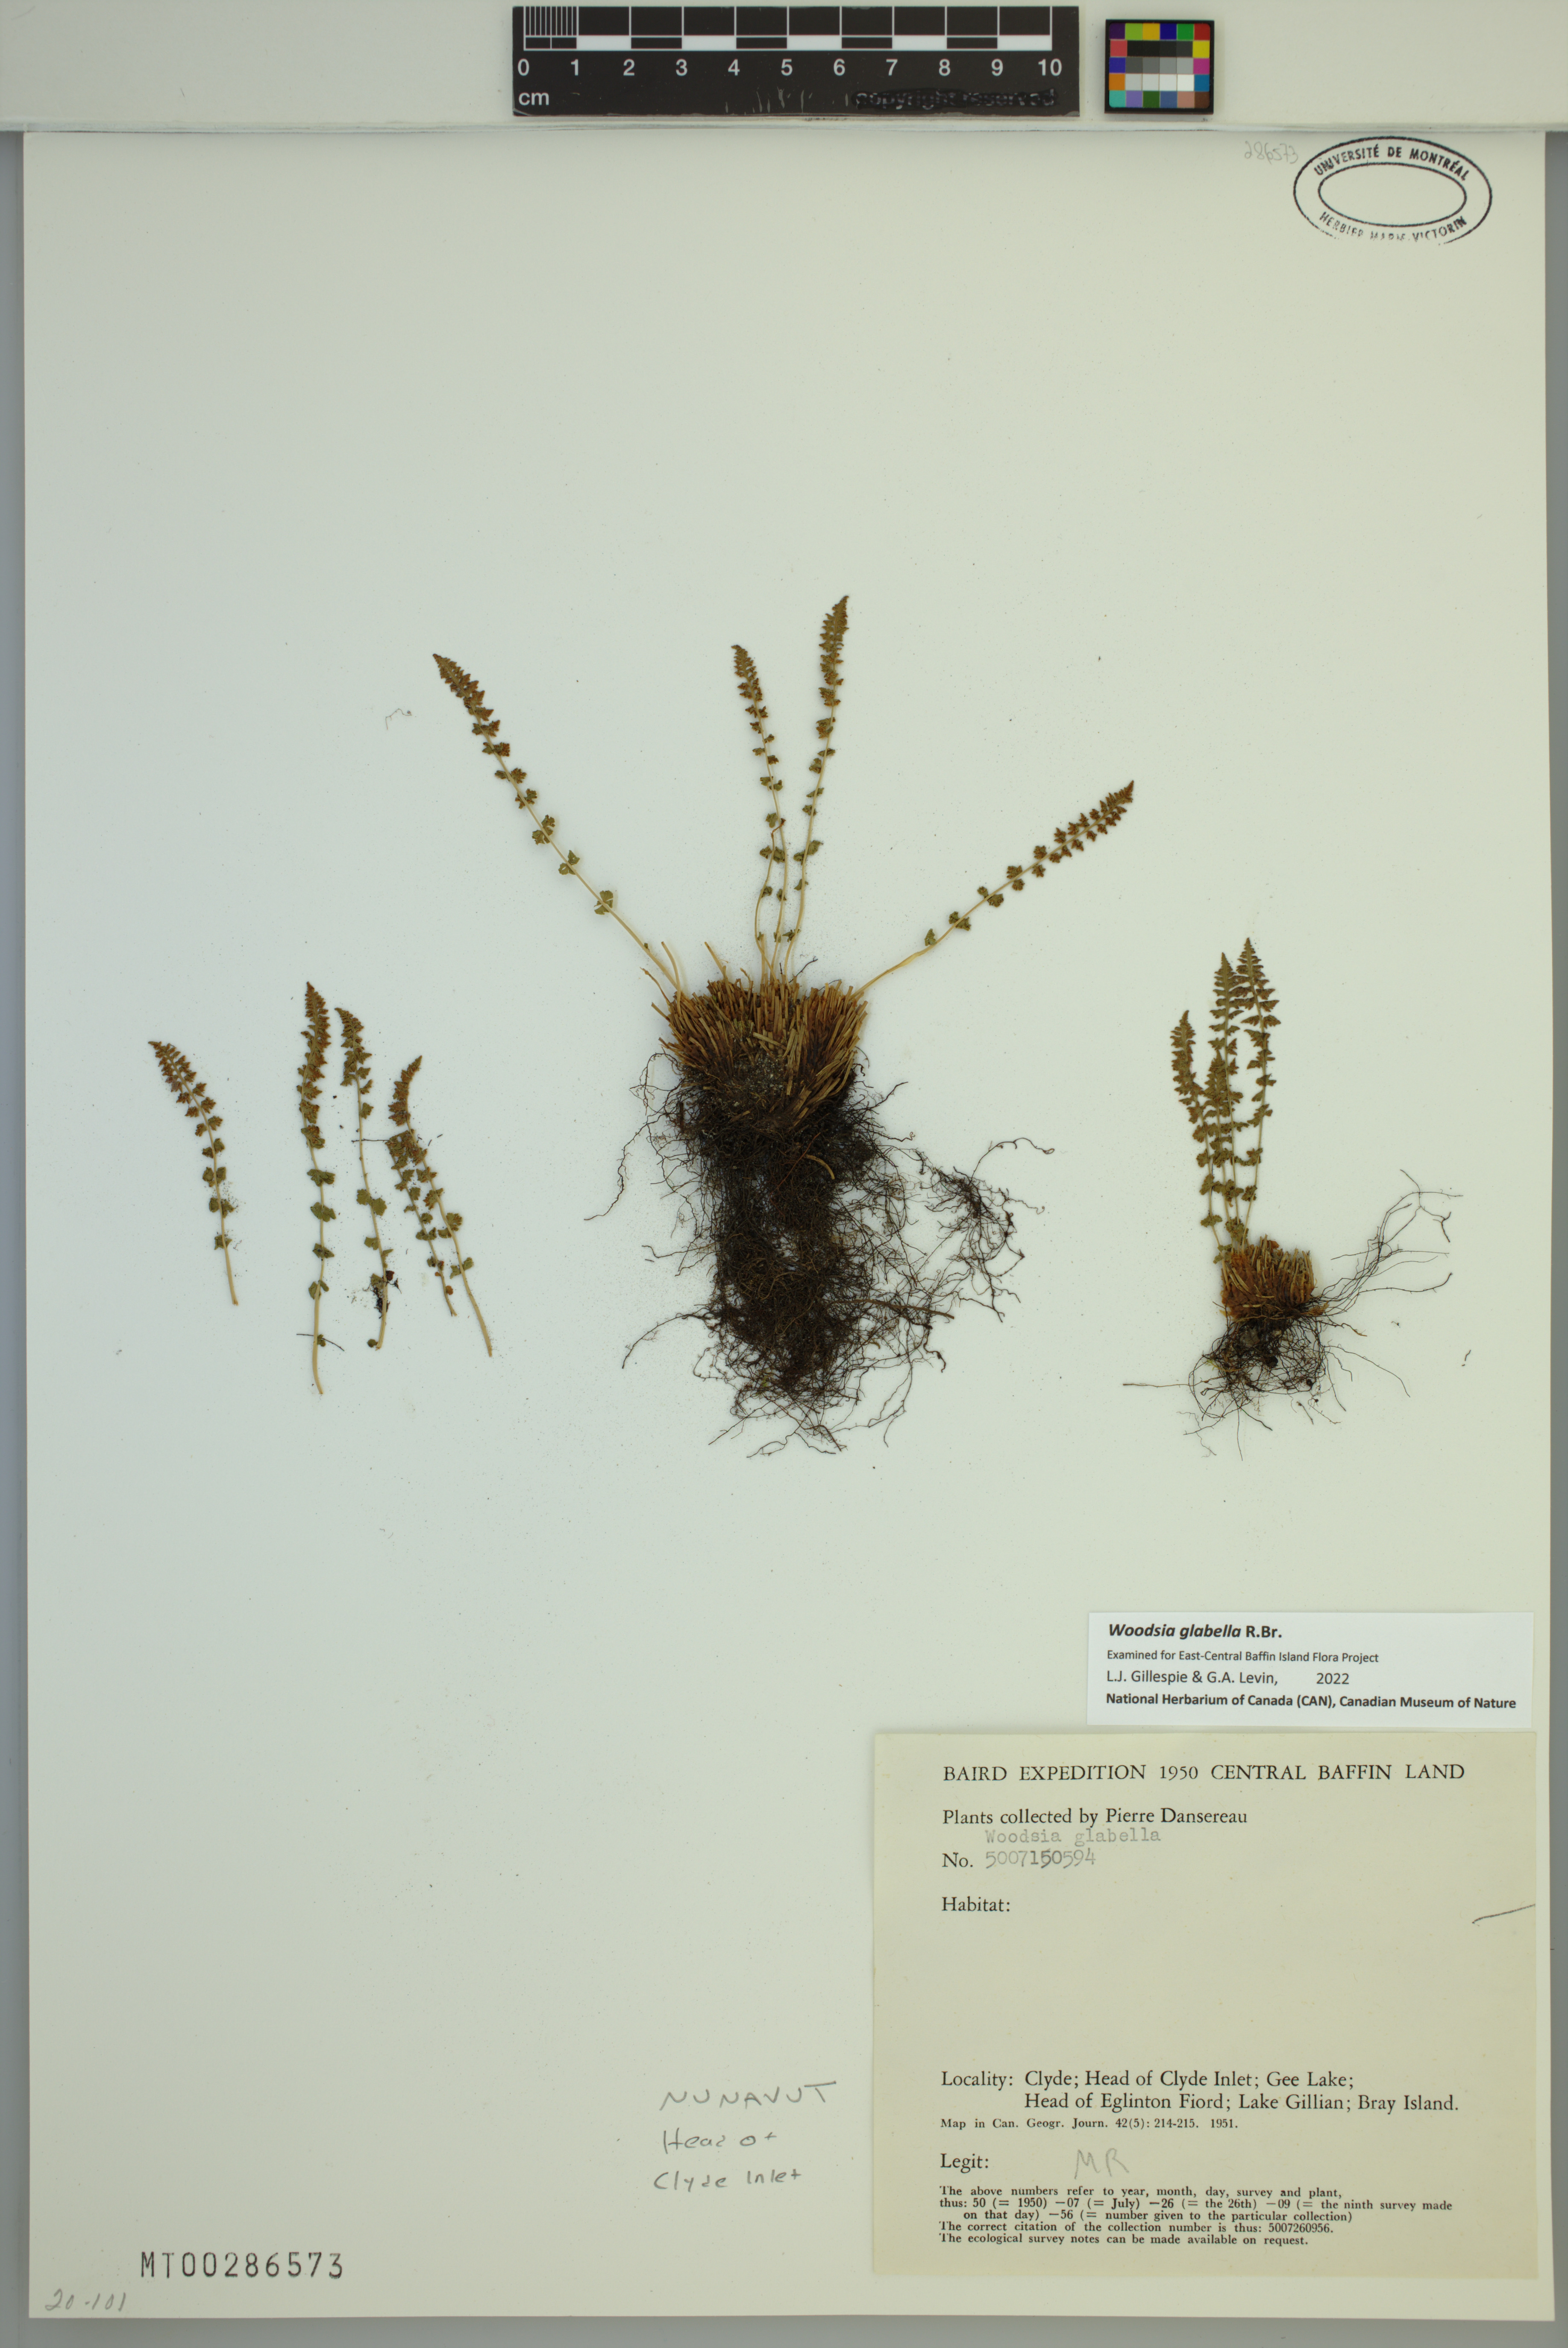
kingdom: Plantae
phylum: Tracheophyta
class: Polypodiopsida
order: Polypodiales
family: Woodsiaceae
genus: Woodsia
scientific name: Woodsia glabella
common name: Smooth woodsia
